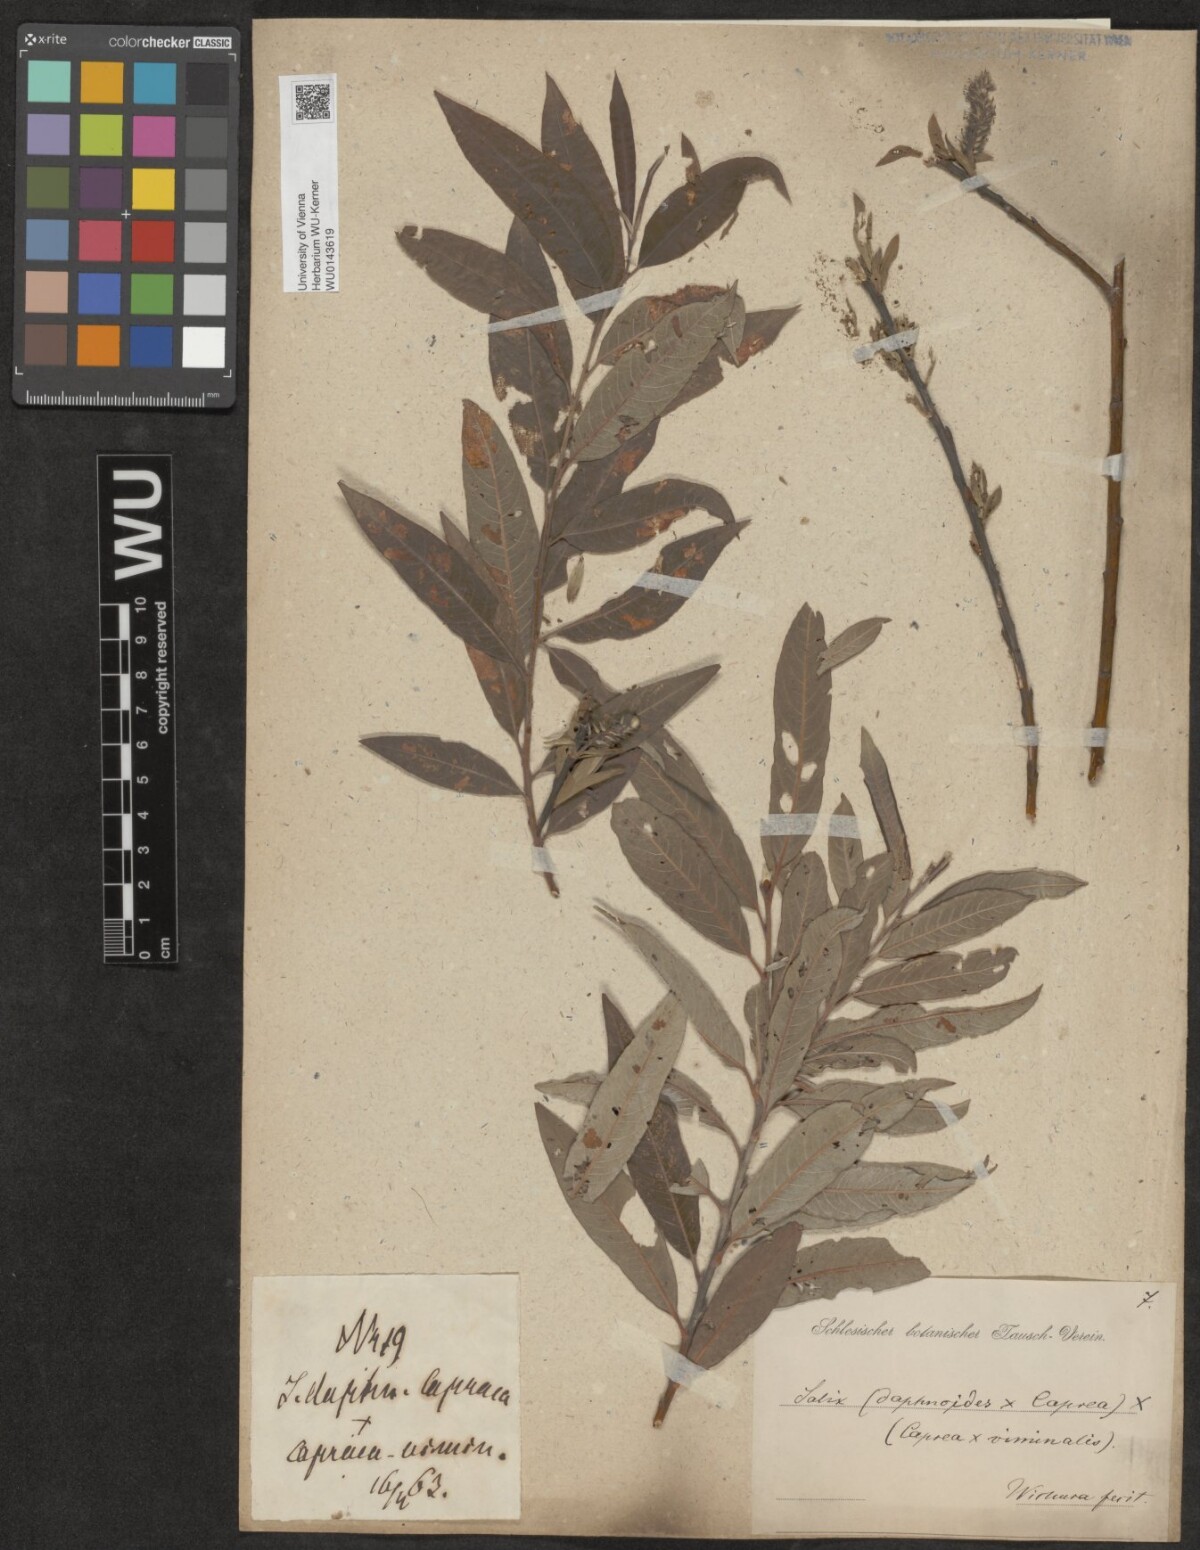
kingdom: Plantae
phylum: Tracheophyta
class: Magnoliopsida
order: Malpighiales
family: Salicaceae
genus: Salix
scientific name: Salix
